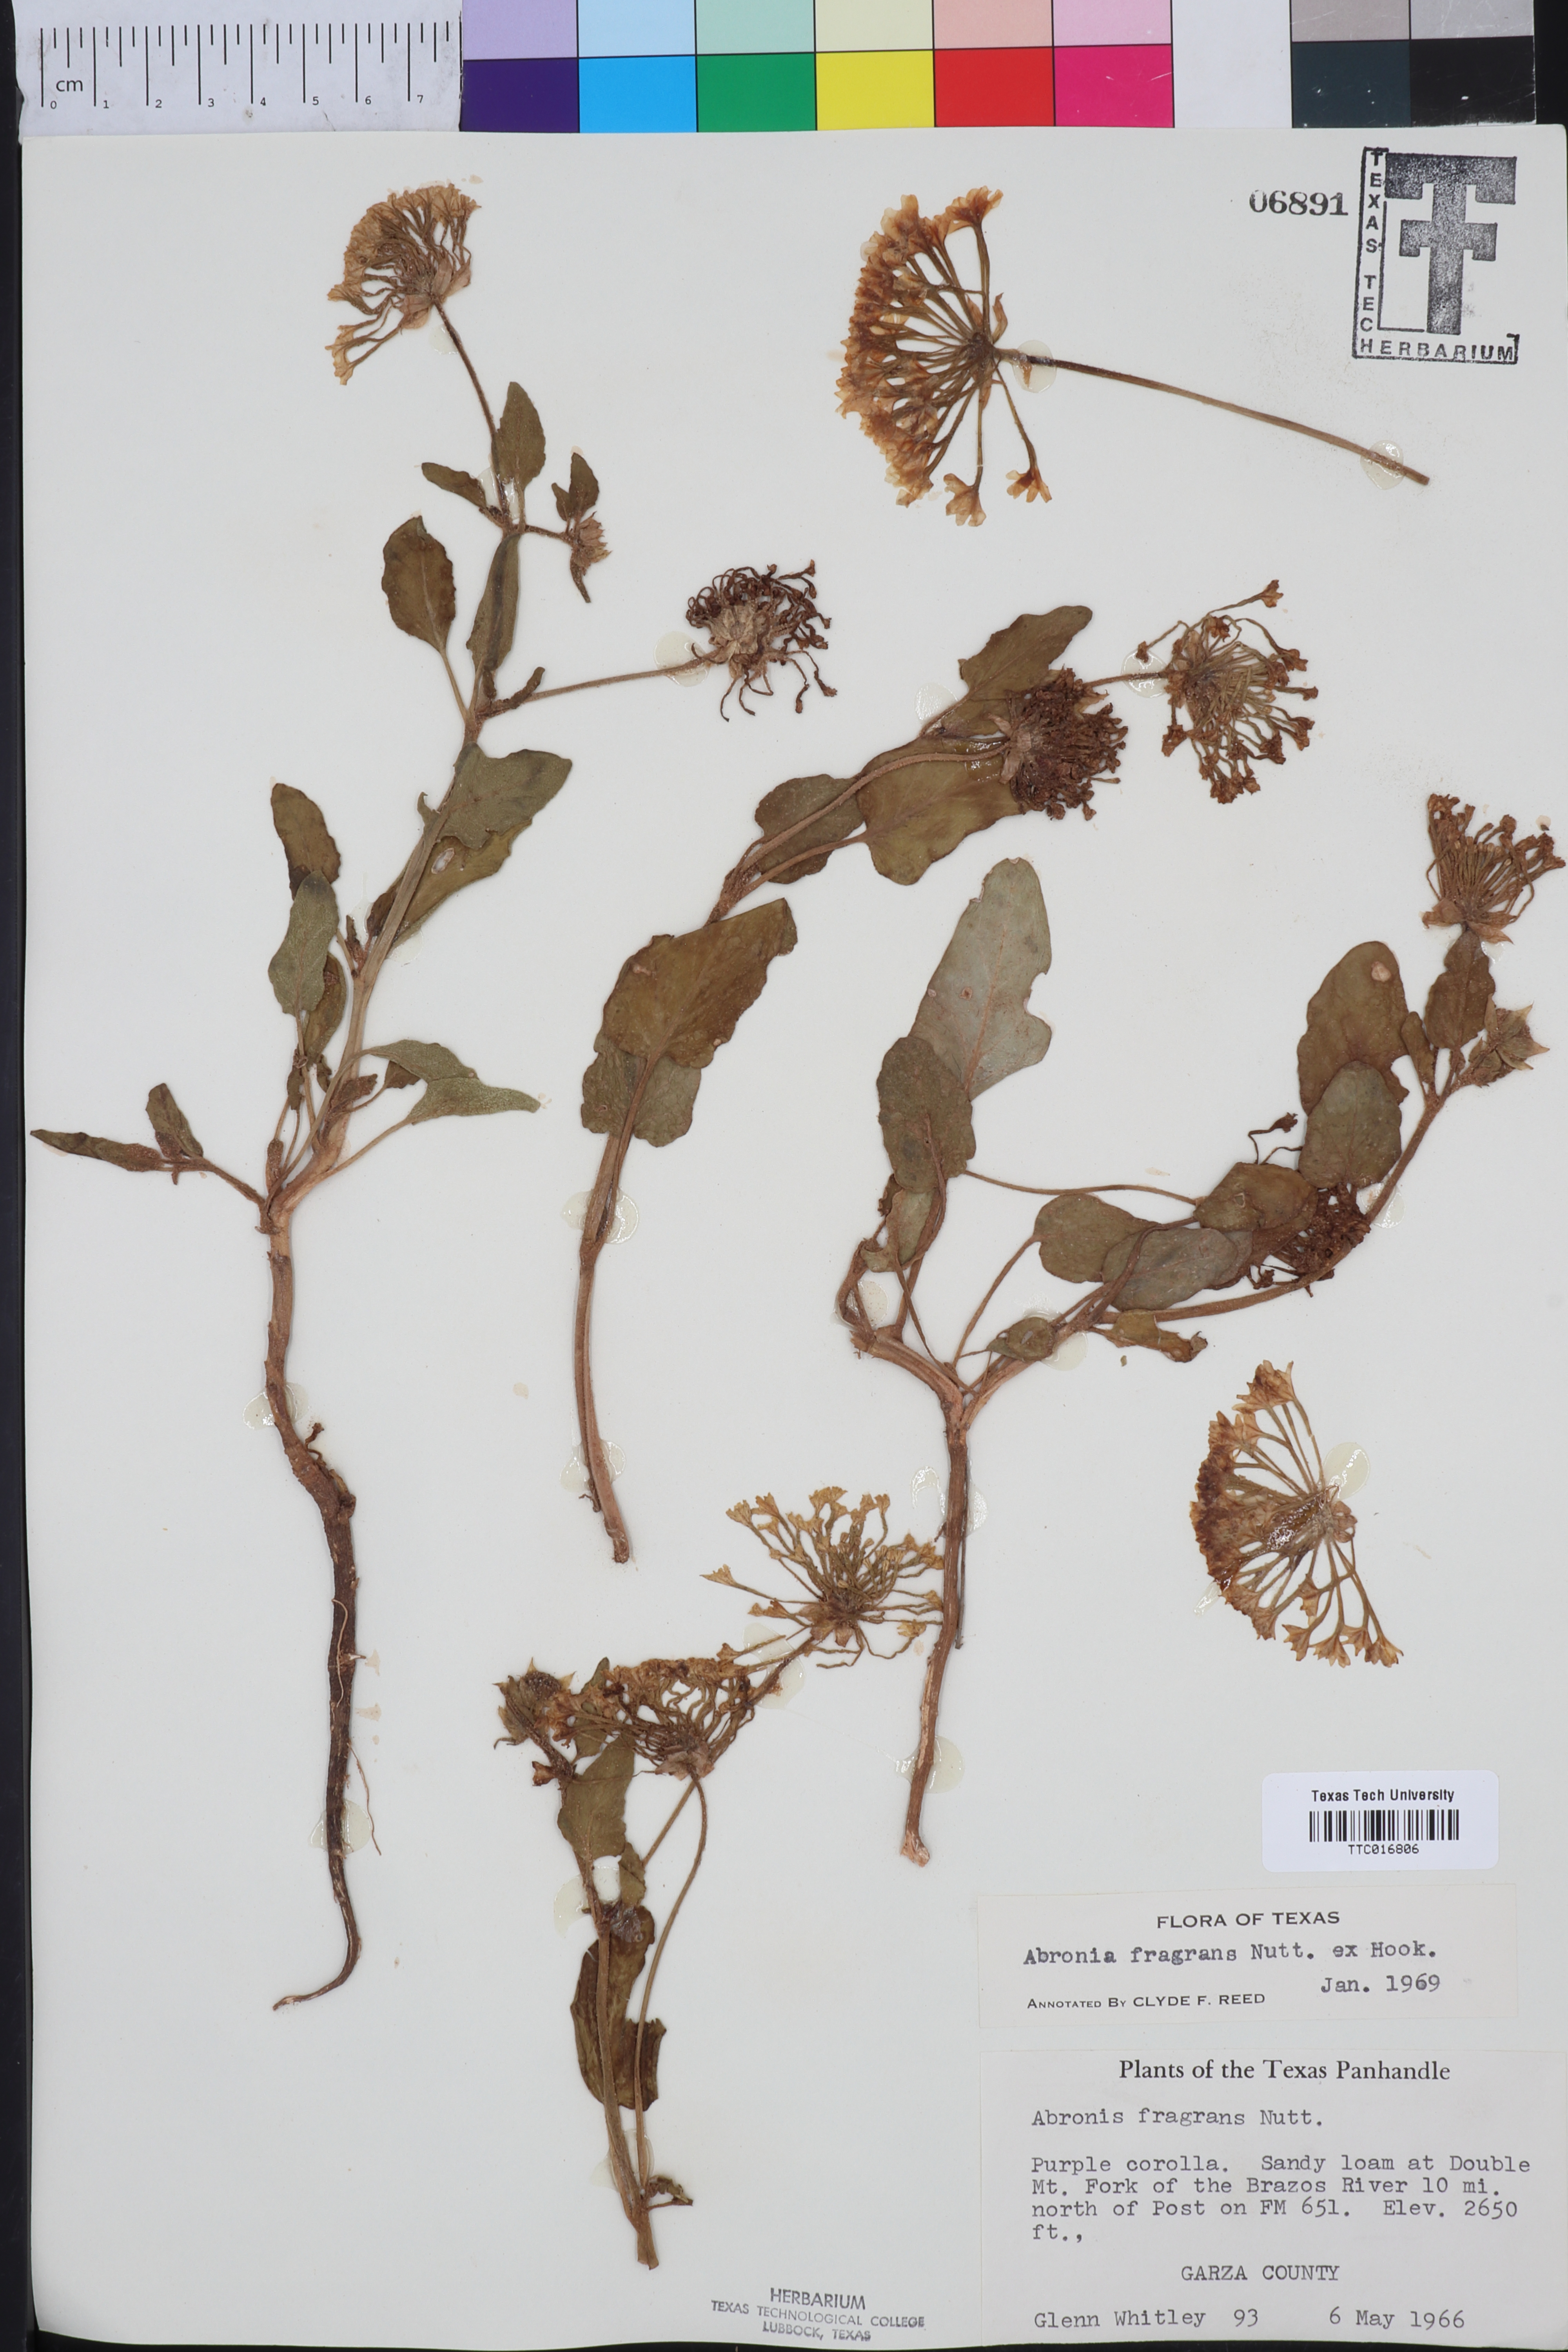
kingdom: Plantae
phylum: Tracheophyta
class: Magnoliopsida
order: Caryophyllales
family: Nyctaginaceae
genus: Abronia
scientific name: Abronia fragrans
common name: Fragrant sand-verbena
